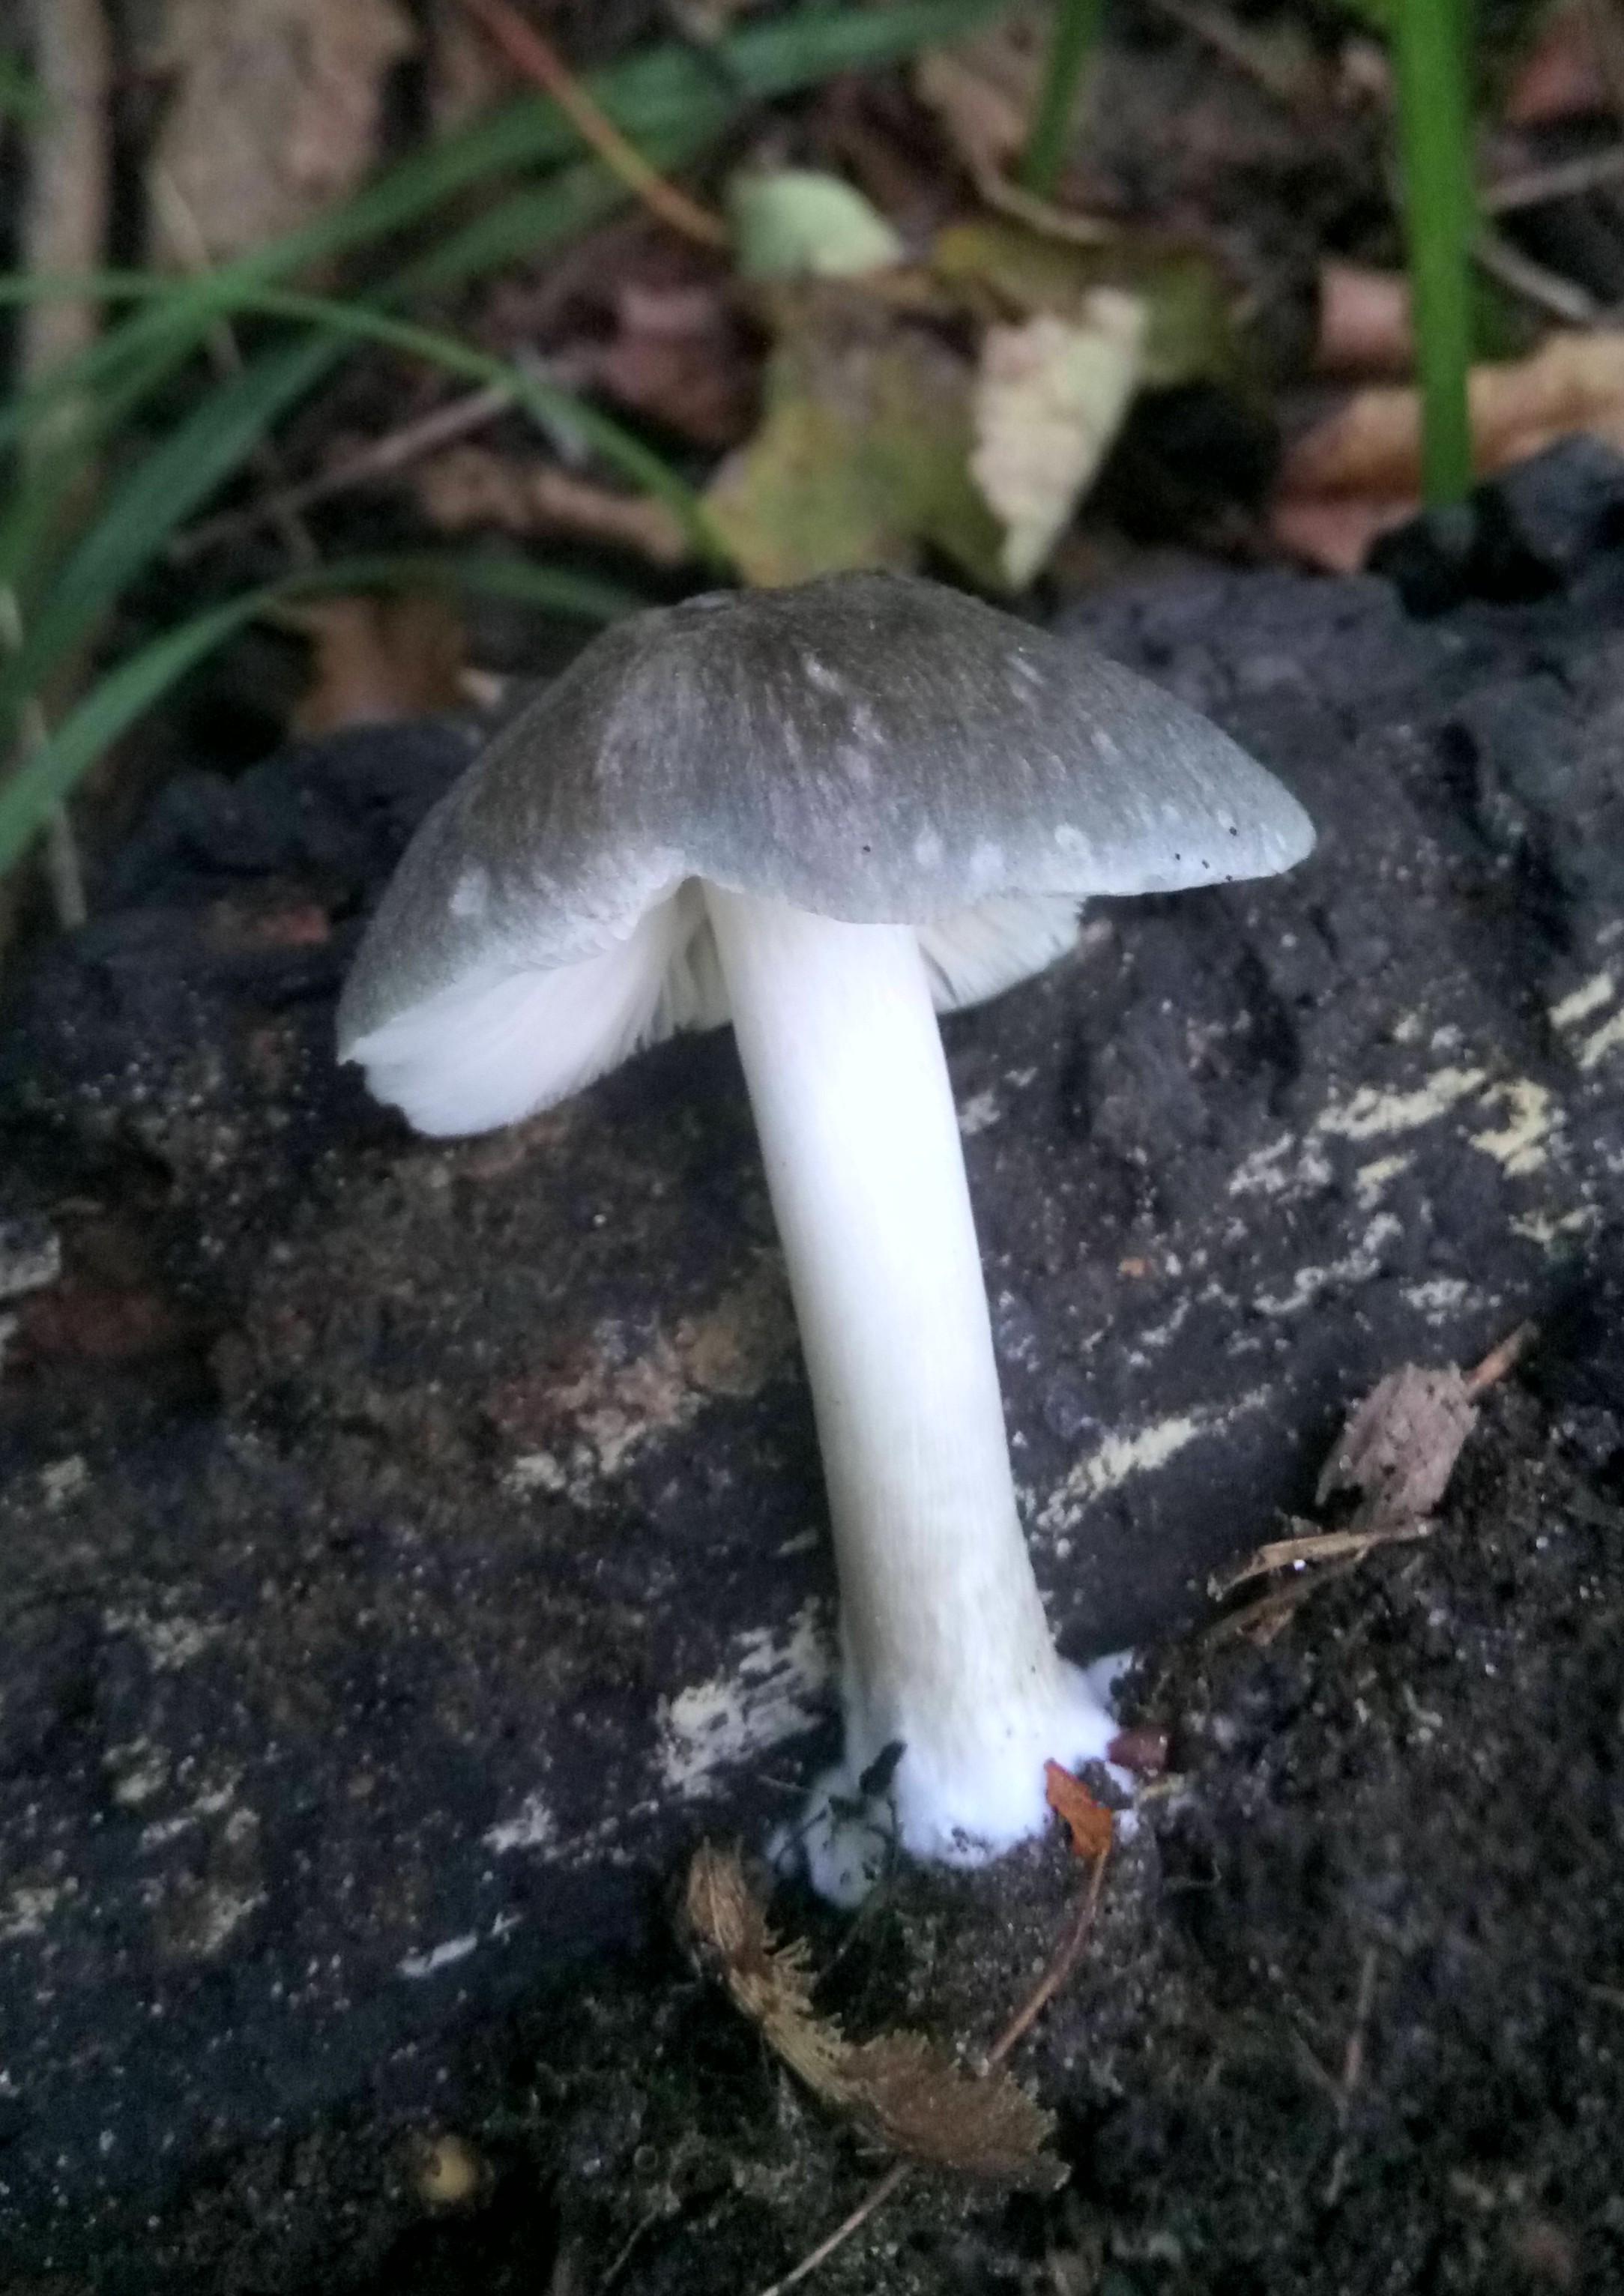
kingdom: Fungi
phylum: Basidiomycota
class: Agaricomycetes
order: Agaricales
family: Pluteaceae
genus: Pluteus
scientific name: Pluteus salicinus
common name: stiv skærmhat
